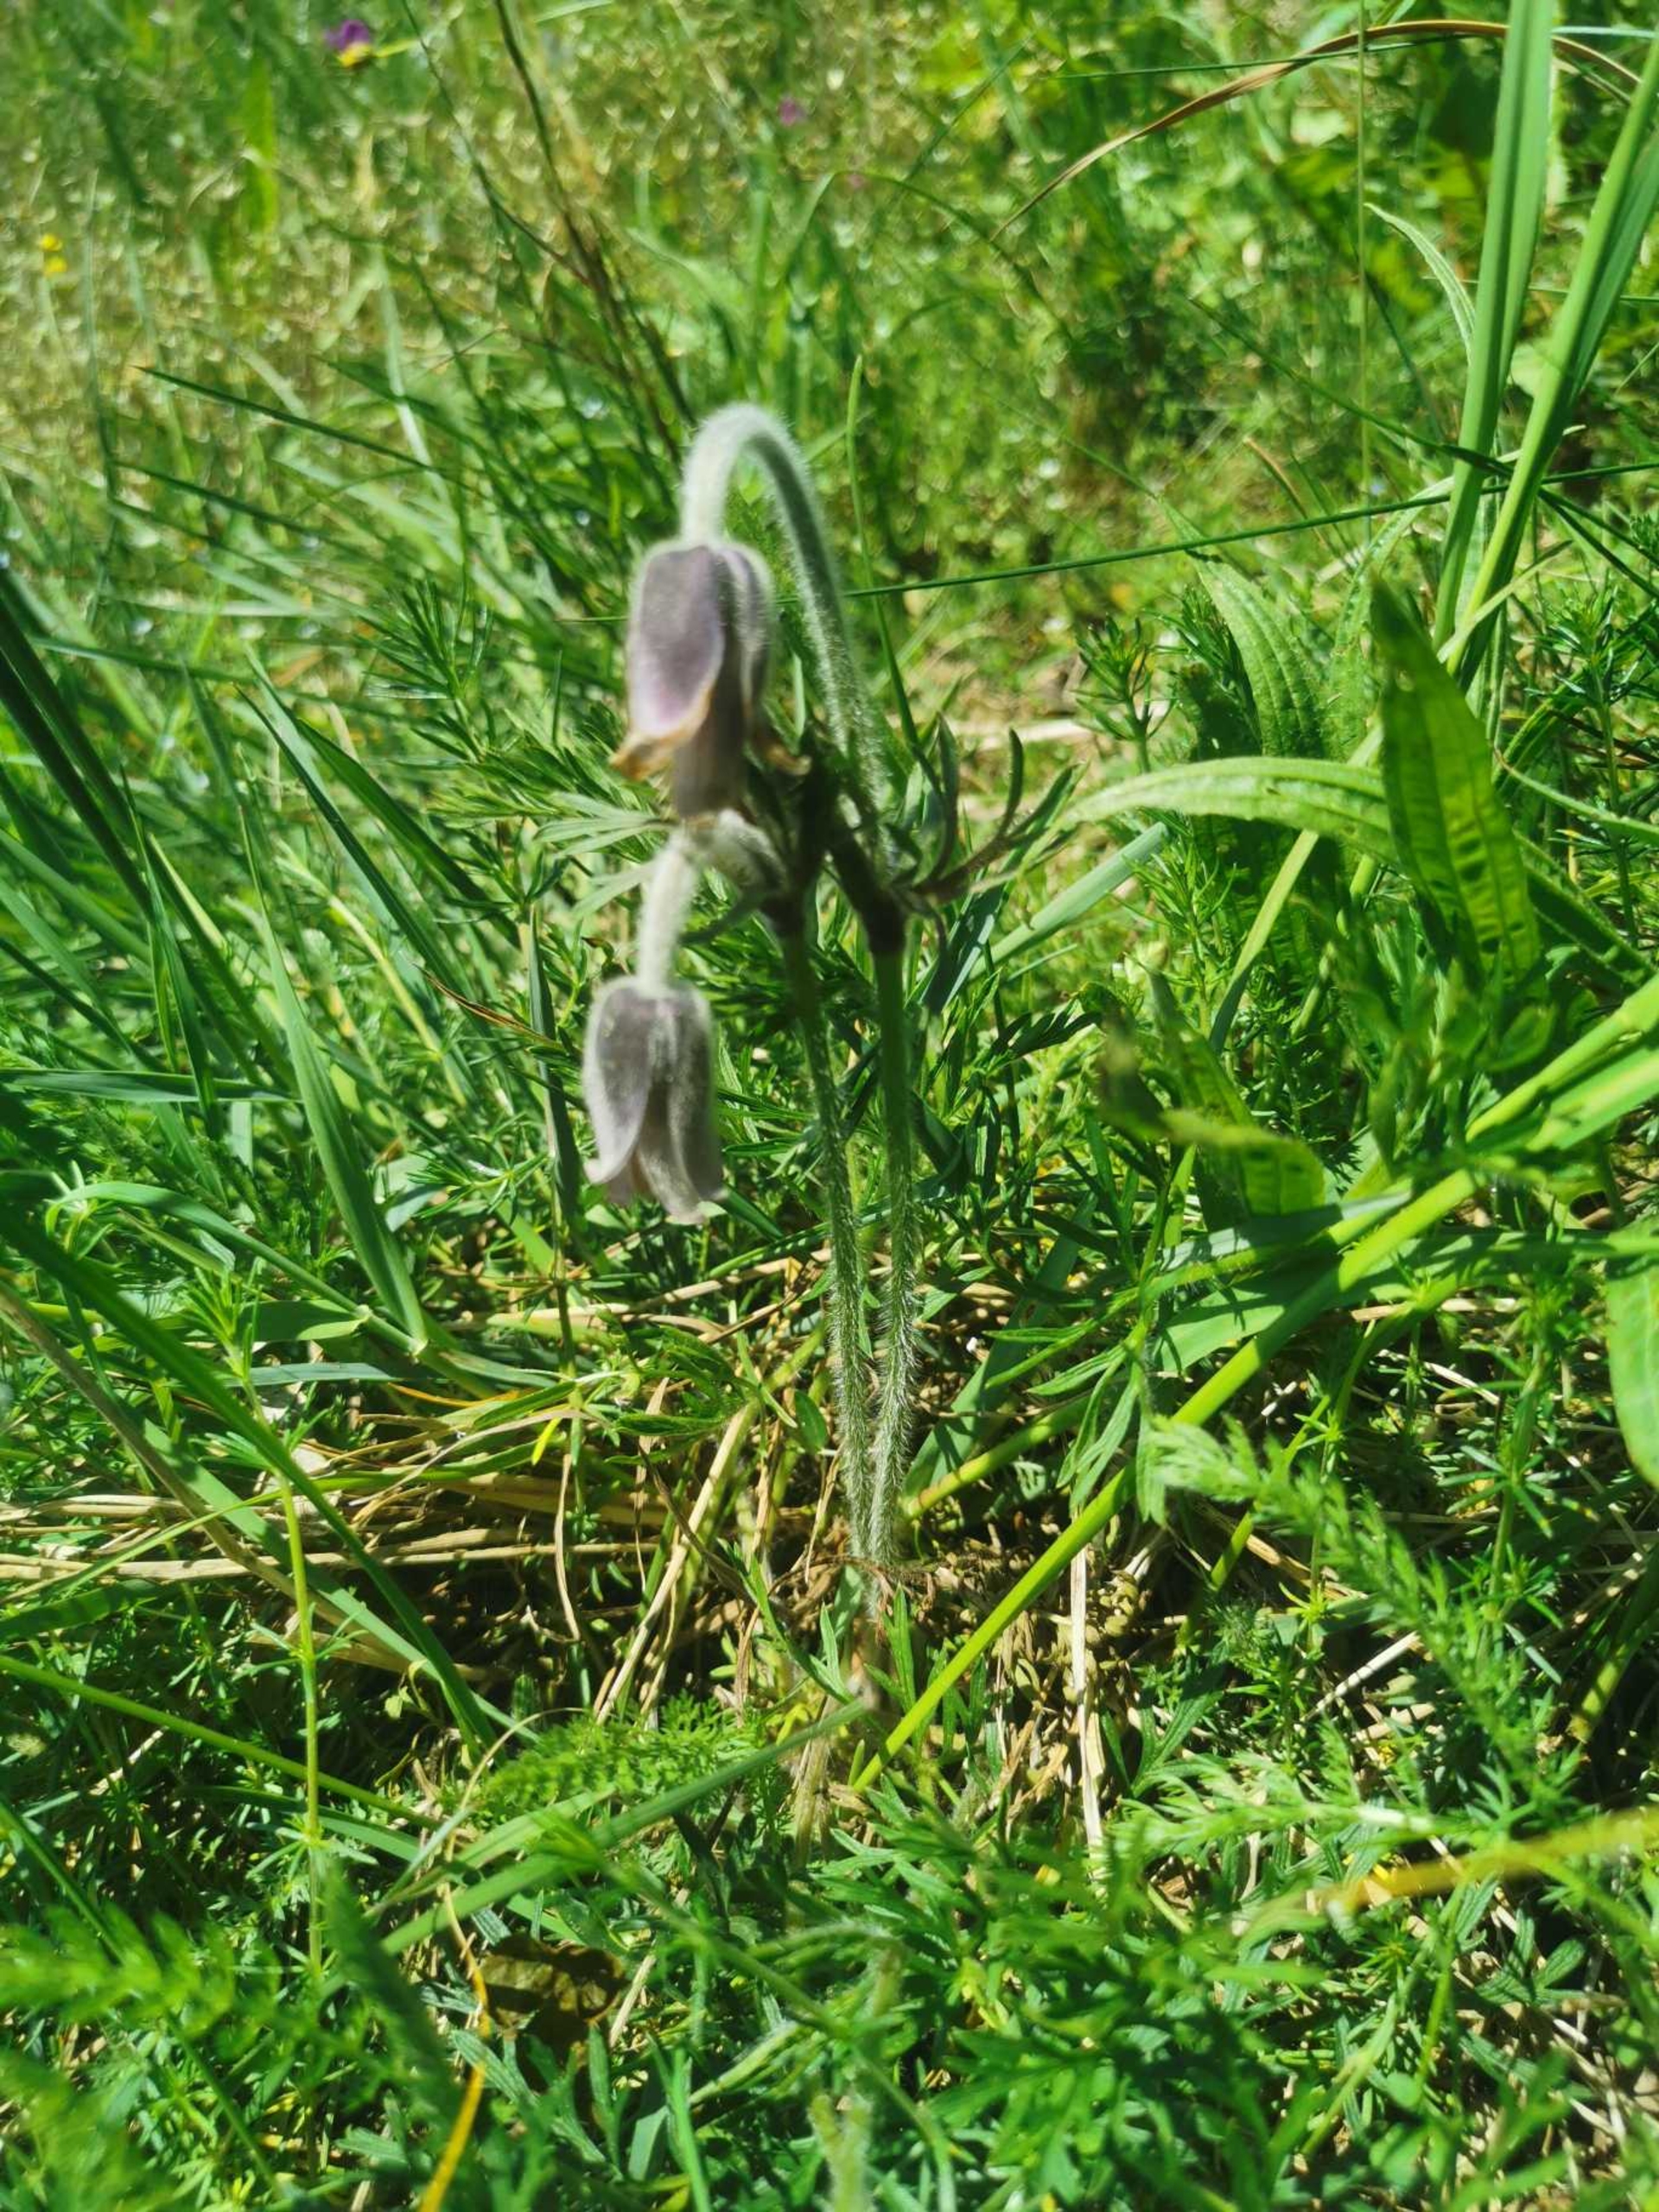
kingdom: Plantae
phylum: Tracheophyta
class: Magnoliopsida
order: Ranunculales
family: Ranunculaceae
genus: Pulsatilla
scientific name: Pulsatilla pratensis
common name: Nikkende kobjælde
